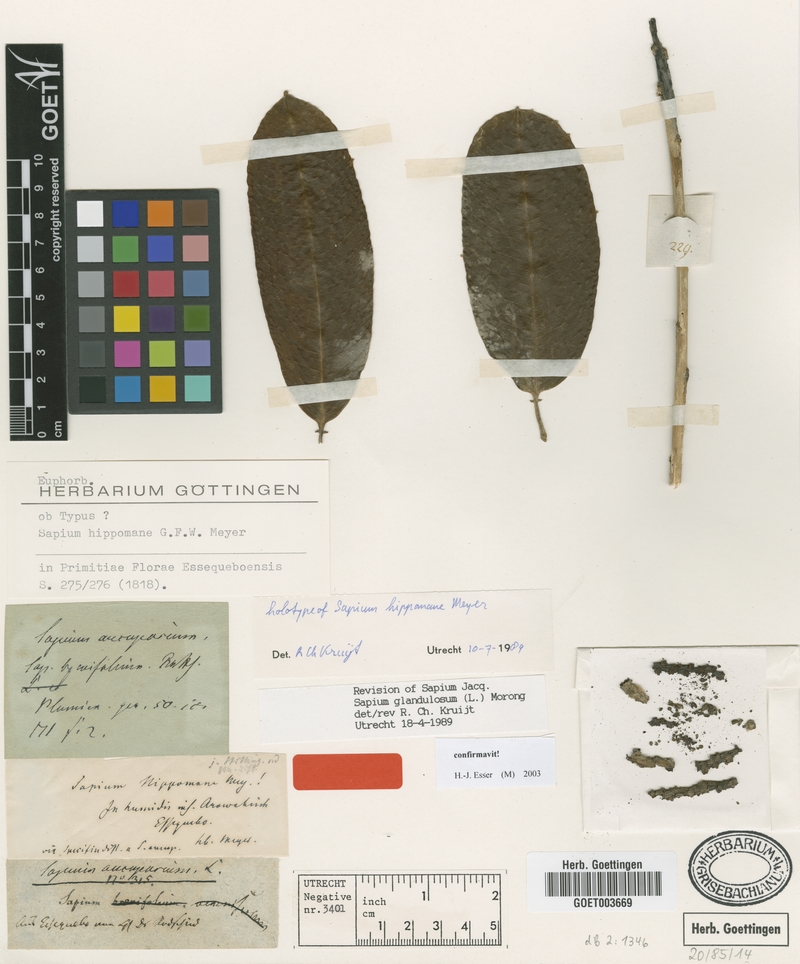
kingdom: Plantae
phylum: Tracheophyta
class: Magnoliopsida
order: Malpighiales
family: Euphorbiaceae
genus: Sapium
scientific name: Sapium glandulosum
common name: Milktree
